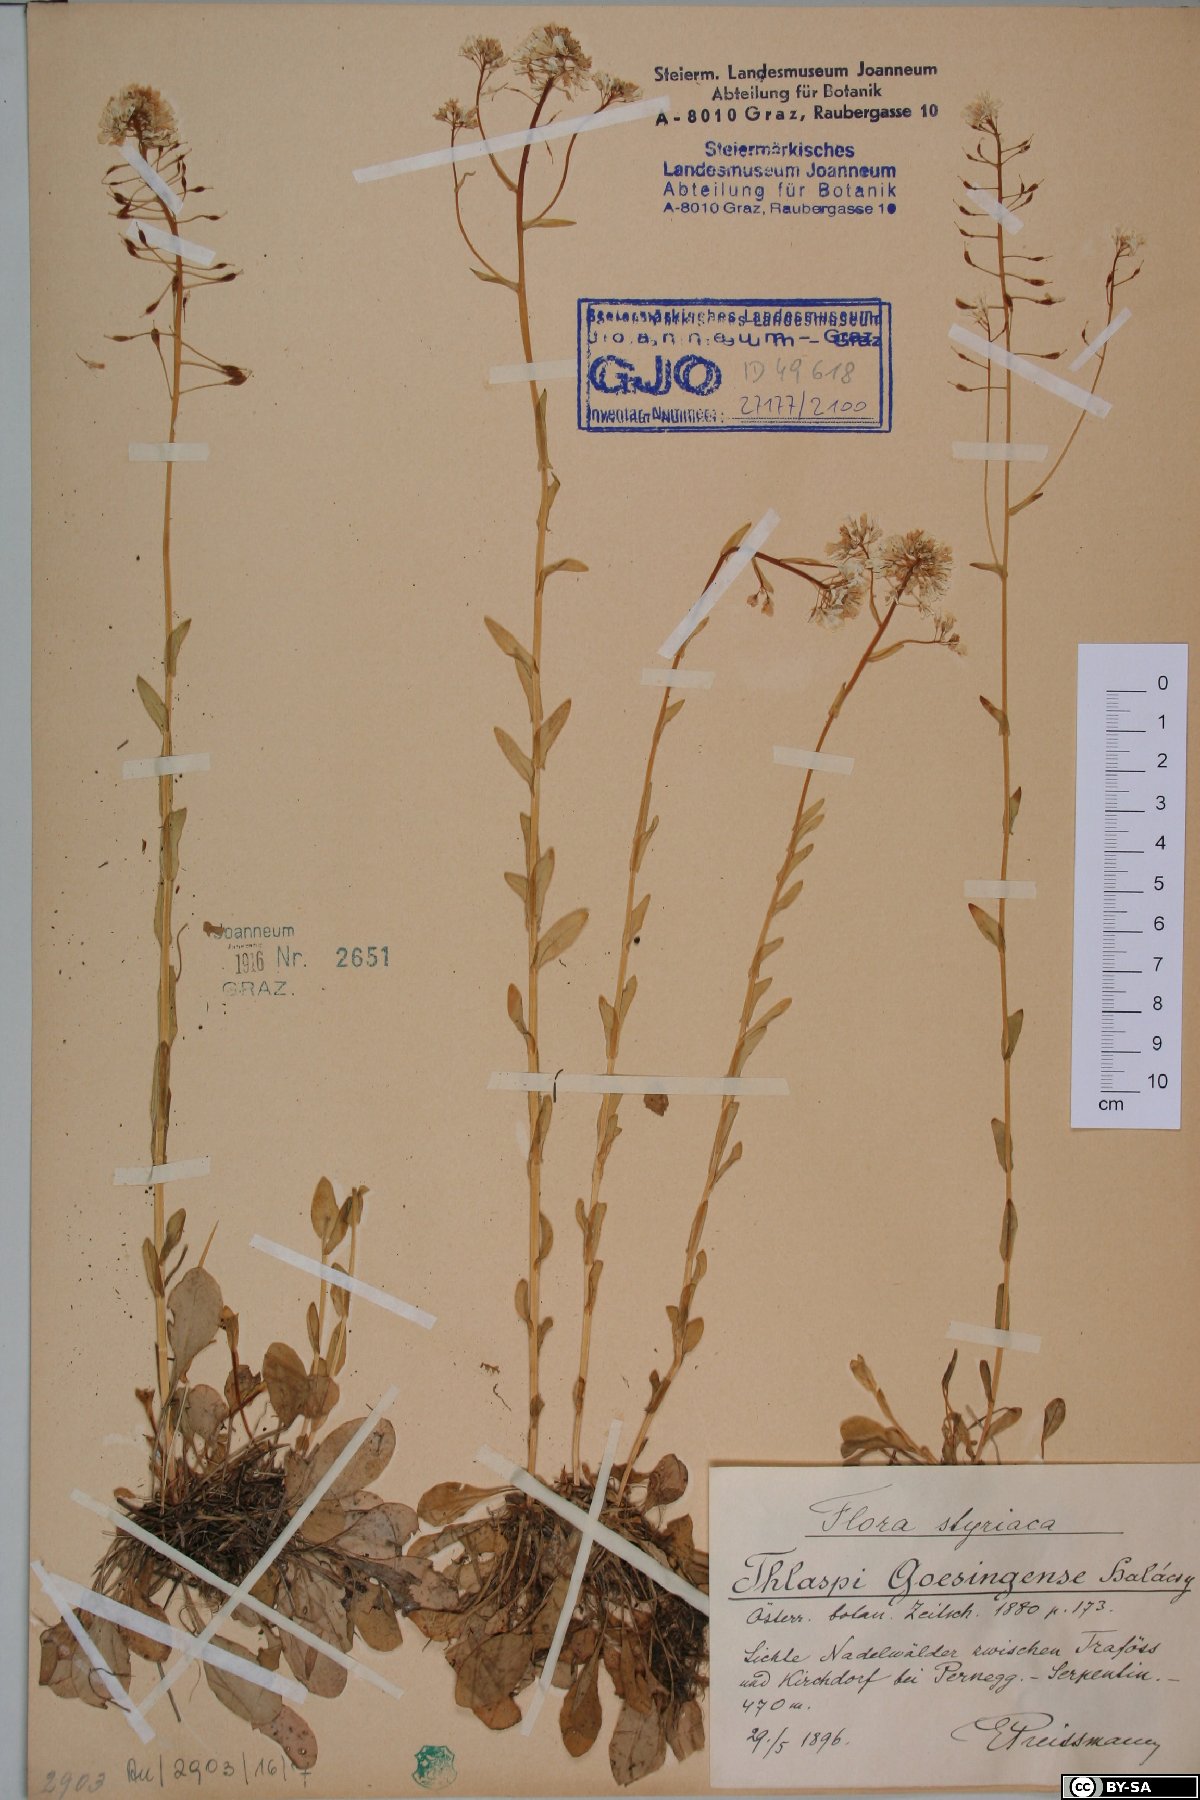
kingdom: Plantae
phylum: Tracheophyta
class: Magnoliopsida
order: Brassicales
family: Brassicaceae
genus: Noccaea
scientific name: Noccaea goesingensis
